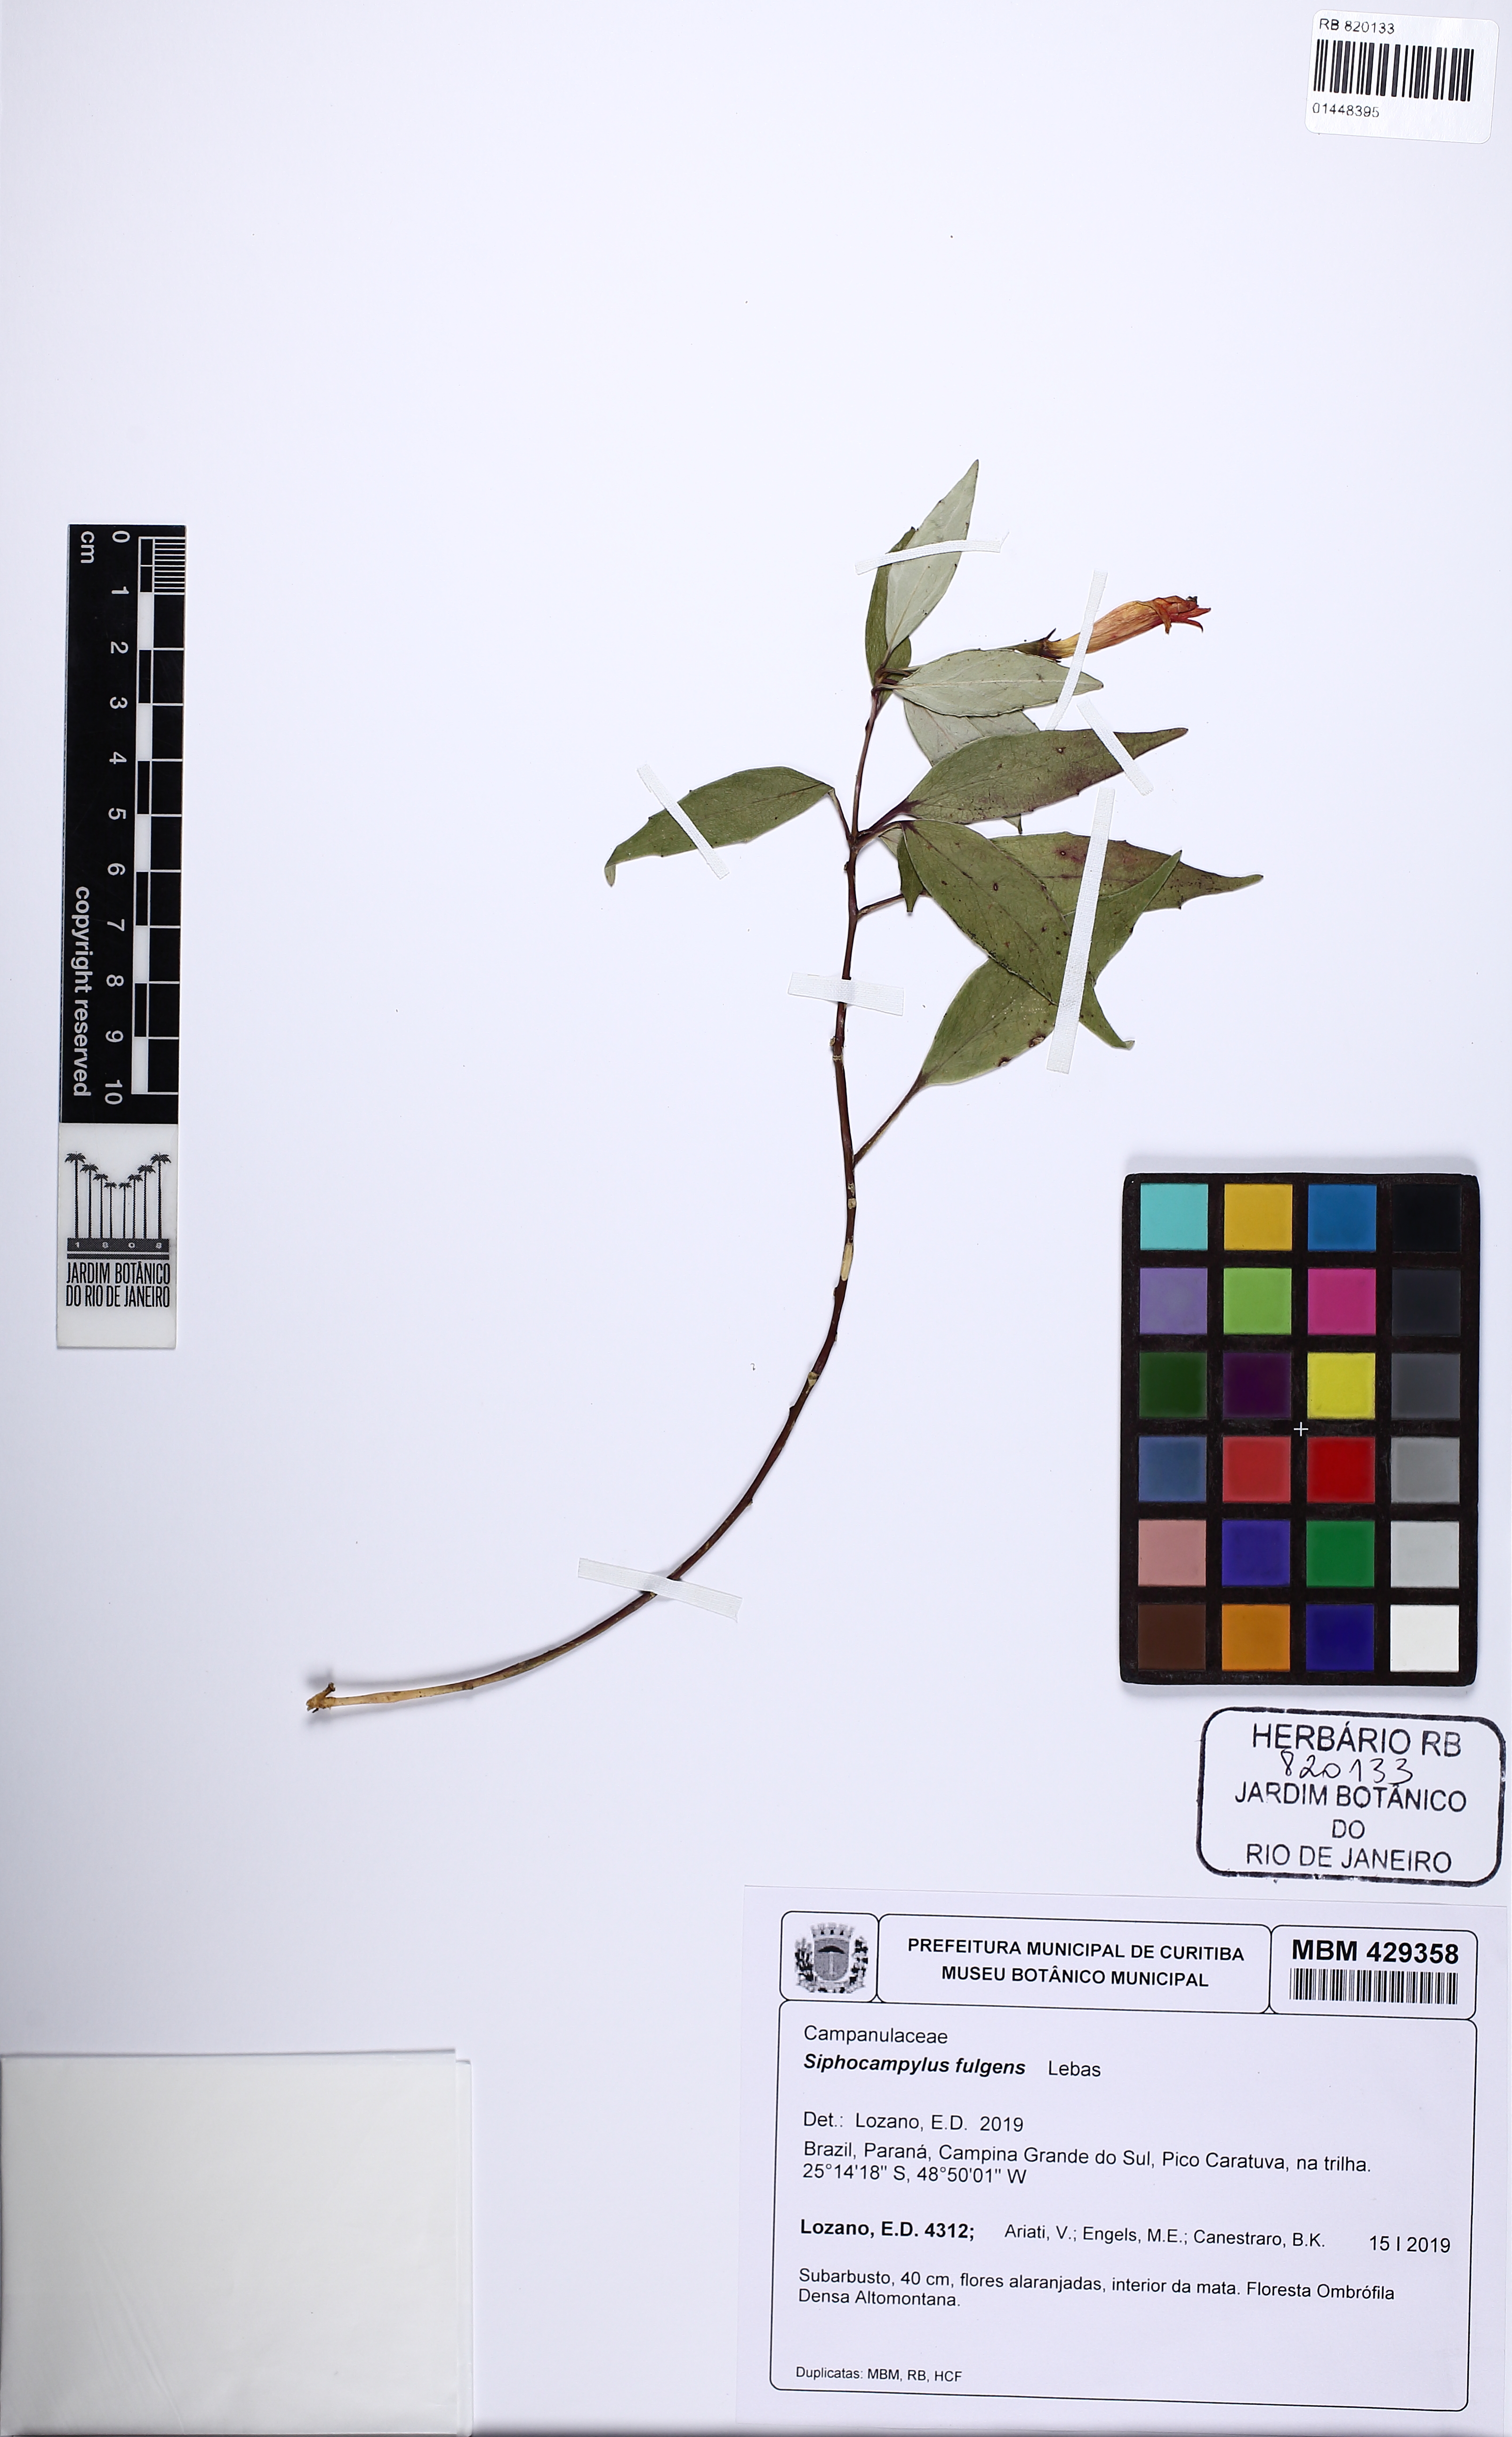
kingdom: Plantae
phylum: Tracheophyta
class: Magnoliopsida
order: Asterales
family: Campanulaceae
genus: Siphocampylus
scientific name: Siphocampylus fulgens
